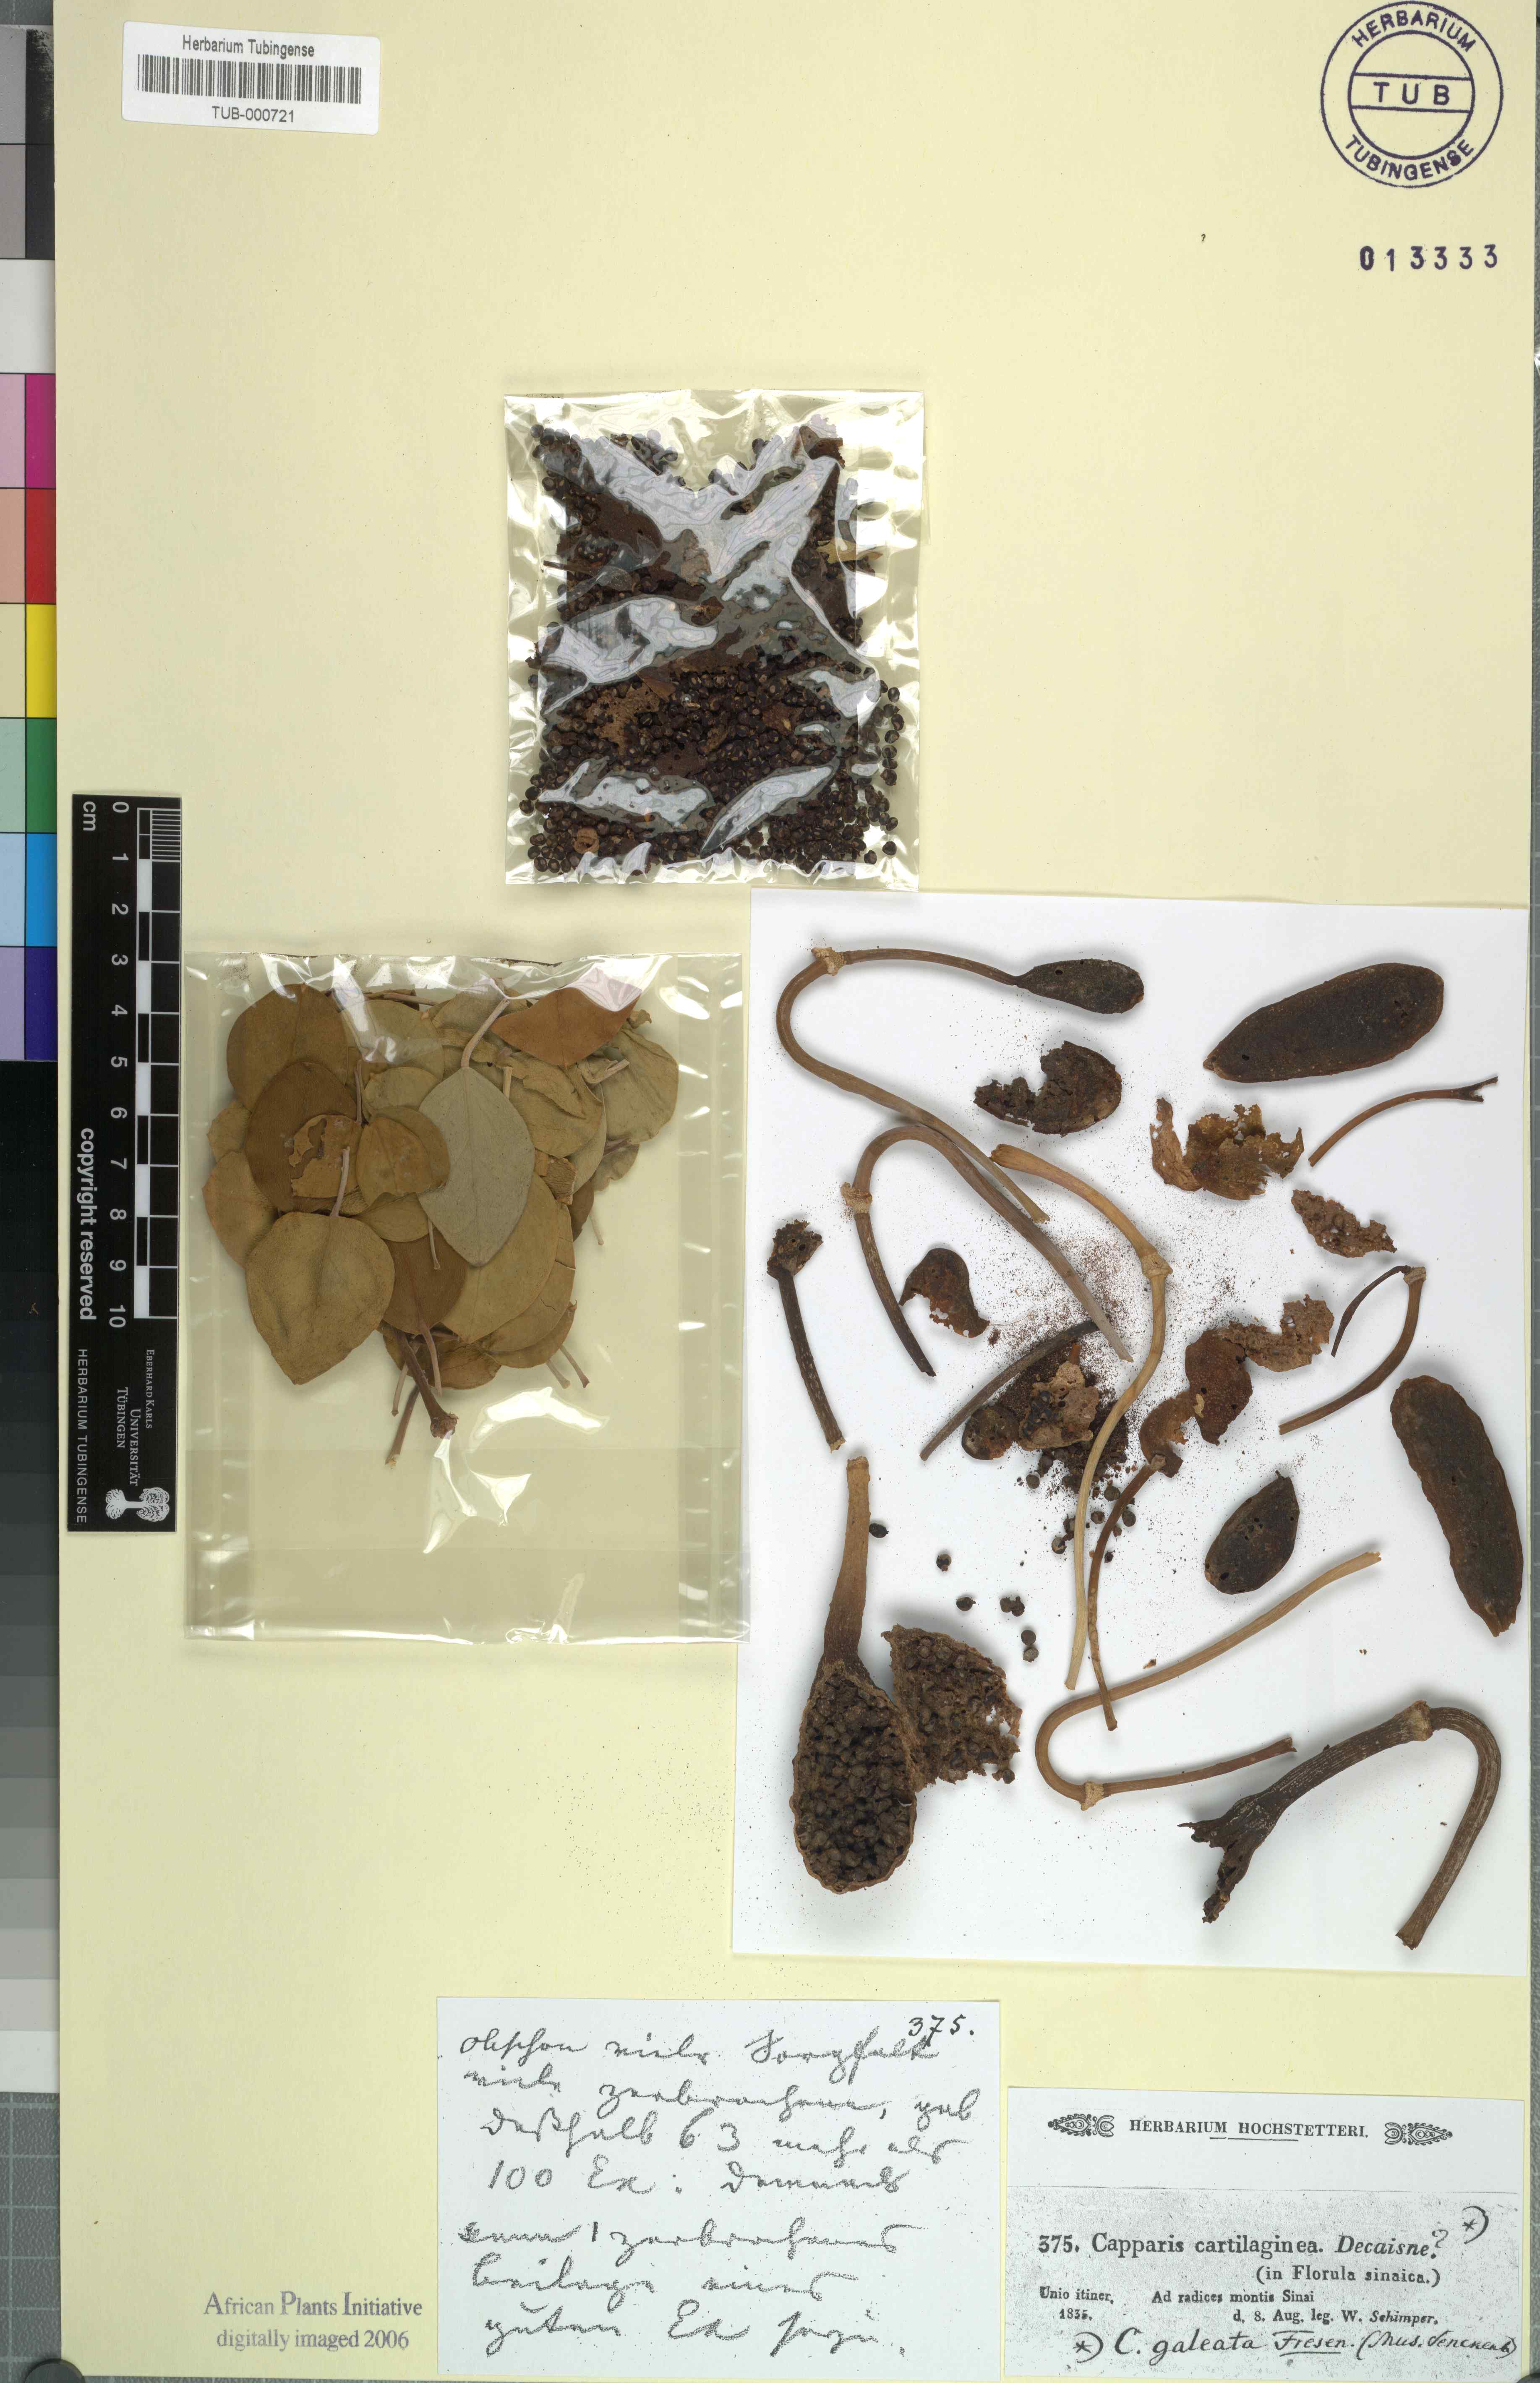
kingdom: Plantae
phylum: Tracheophyta
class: Magnoliopsida
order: Brassicales
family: Capparaceae
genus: Capparis
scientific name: Capparis spinosa
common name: Caper
